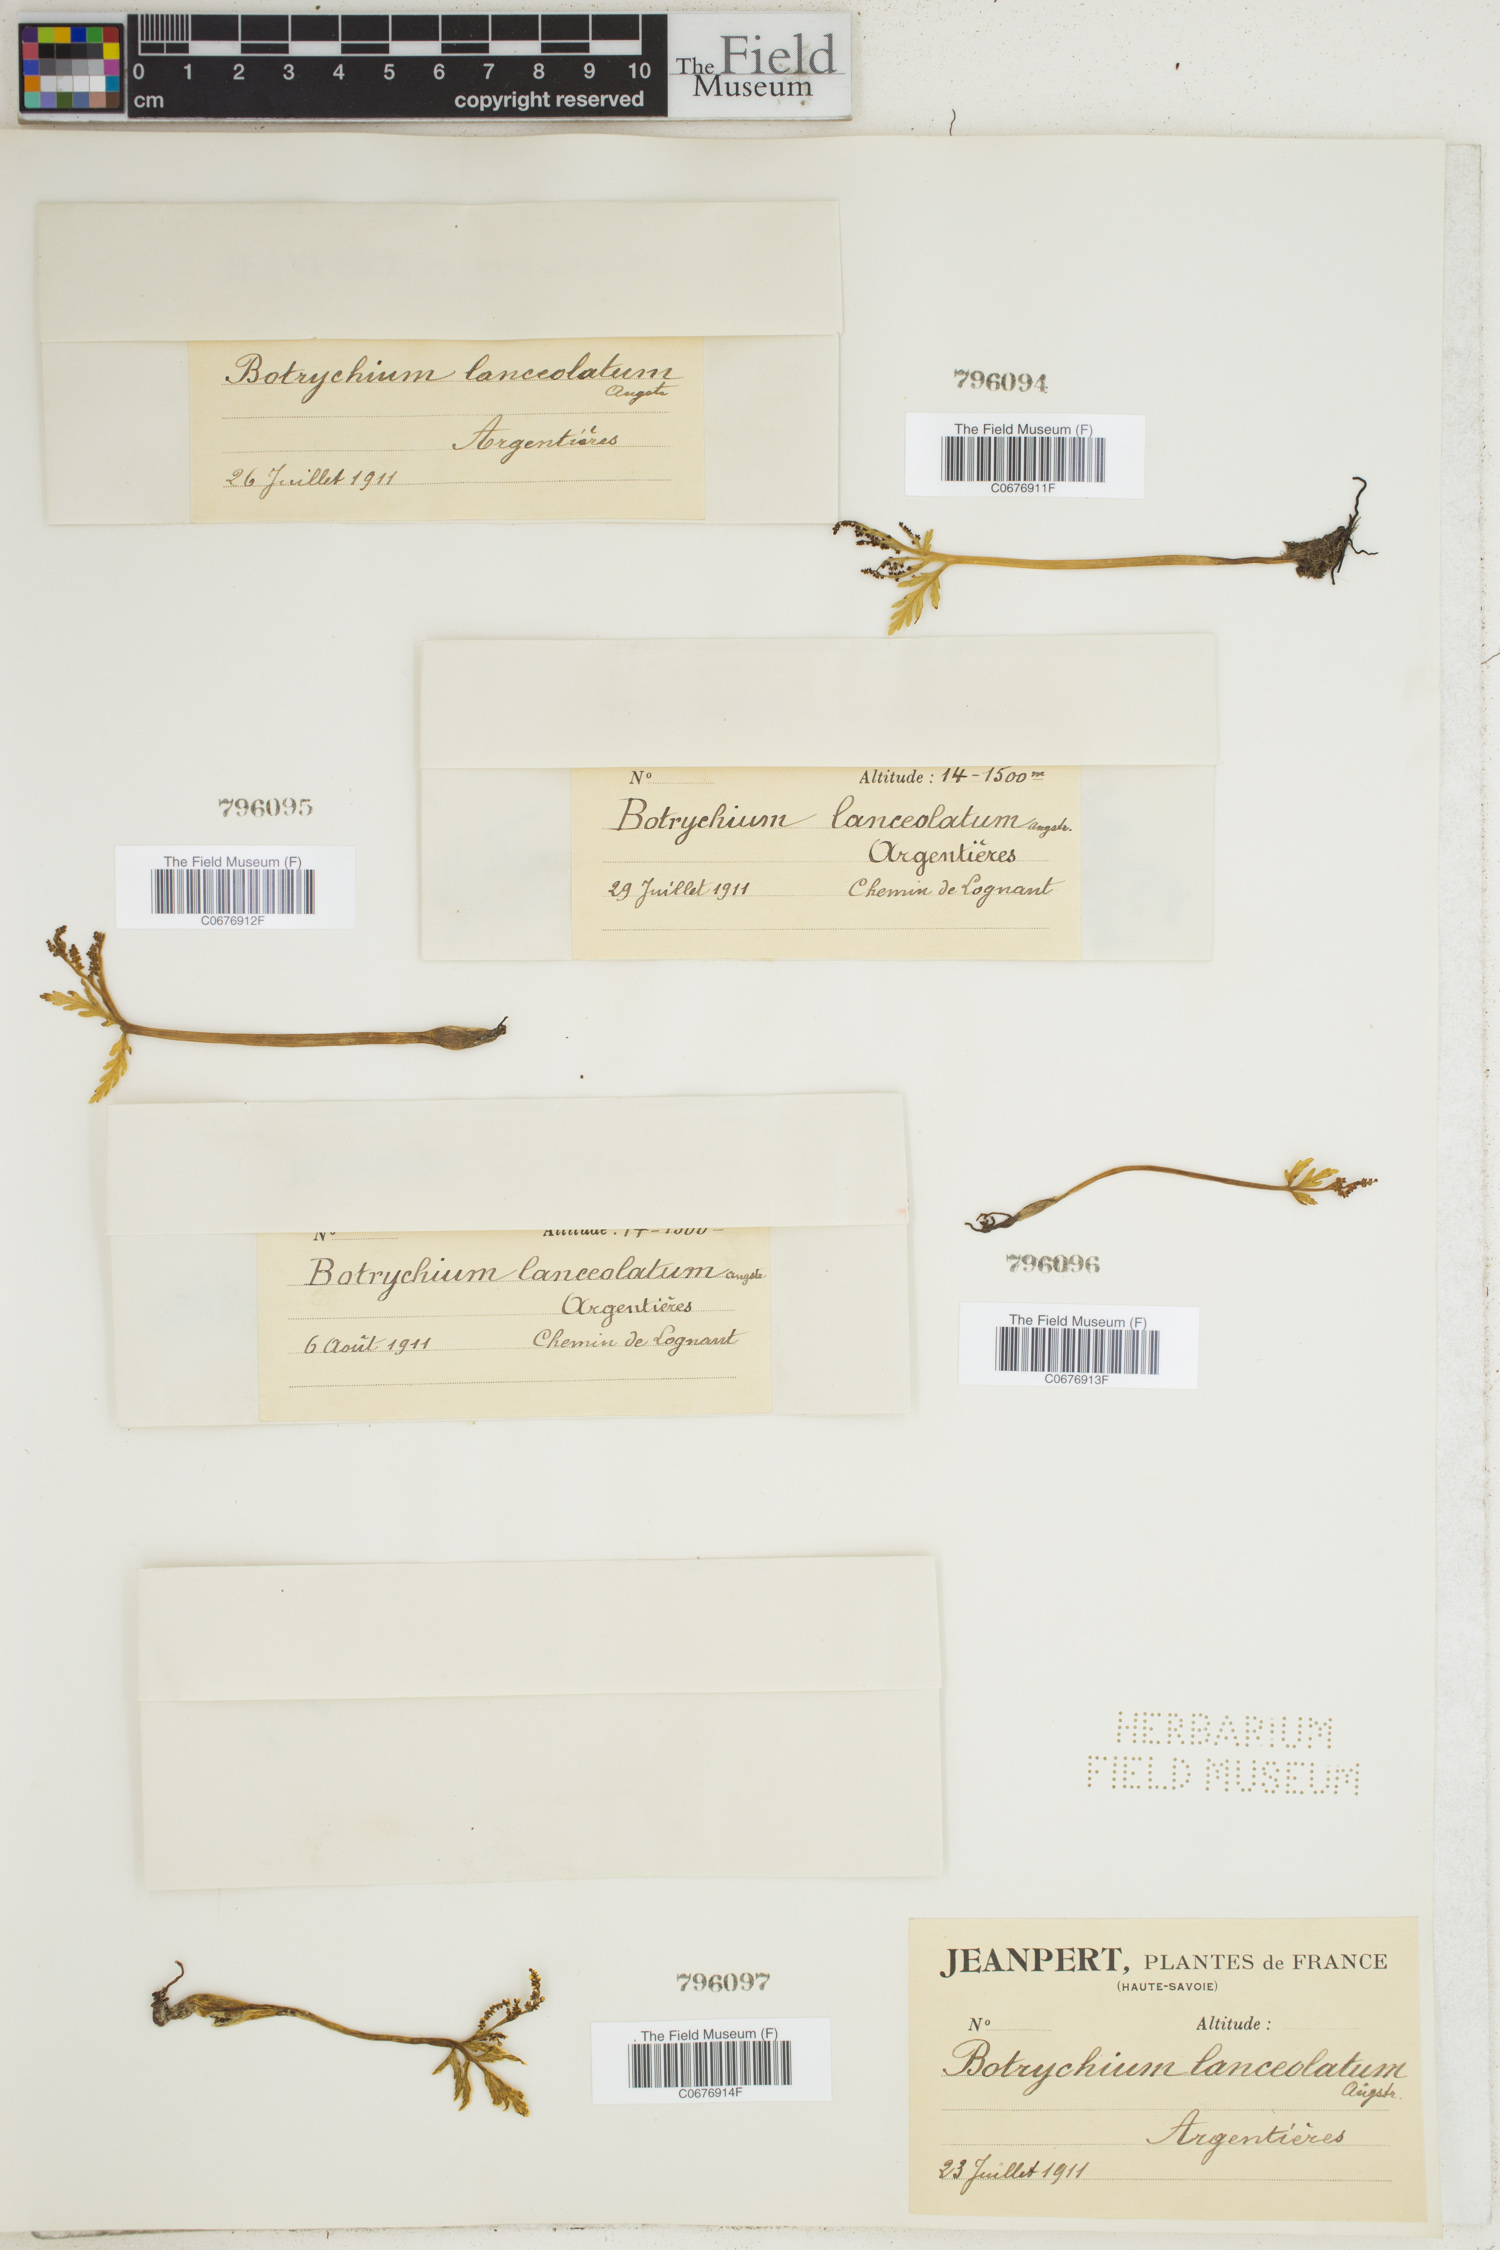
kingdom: Plantae
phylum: Tracheophyta
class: Polypodiopsida
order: Ophioglossales
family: Ophioglossaceae
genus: Botrychium
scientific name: Botrychium lanceolatum
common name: Lance-leaved moonwort
